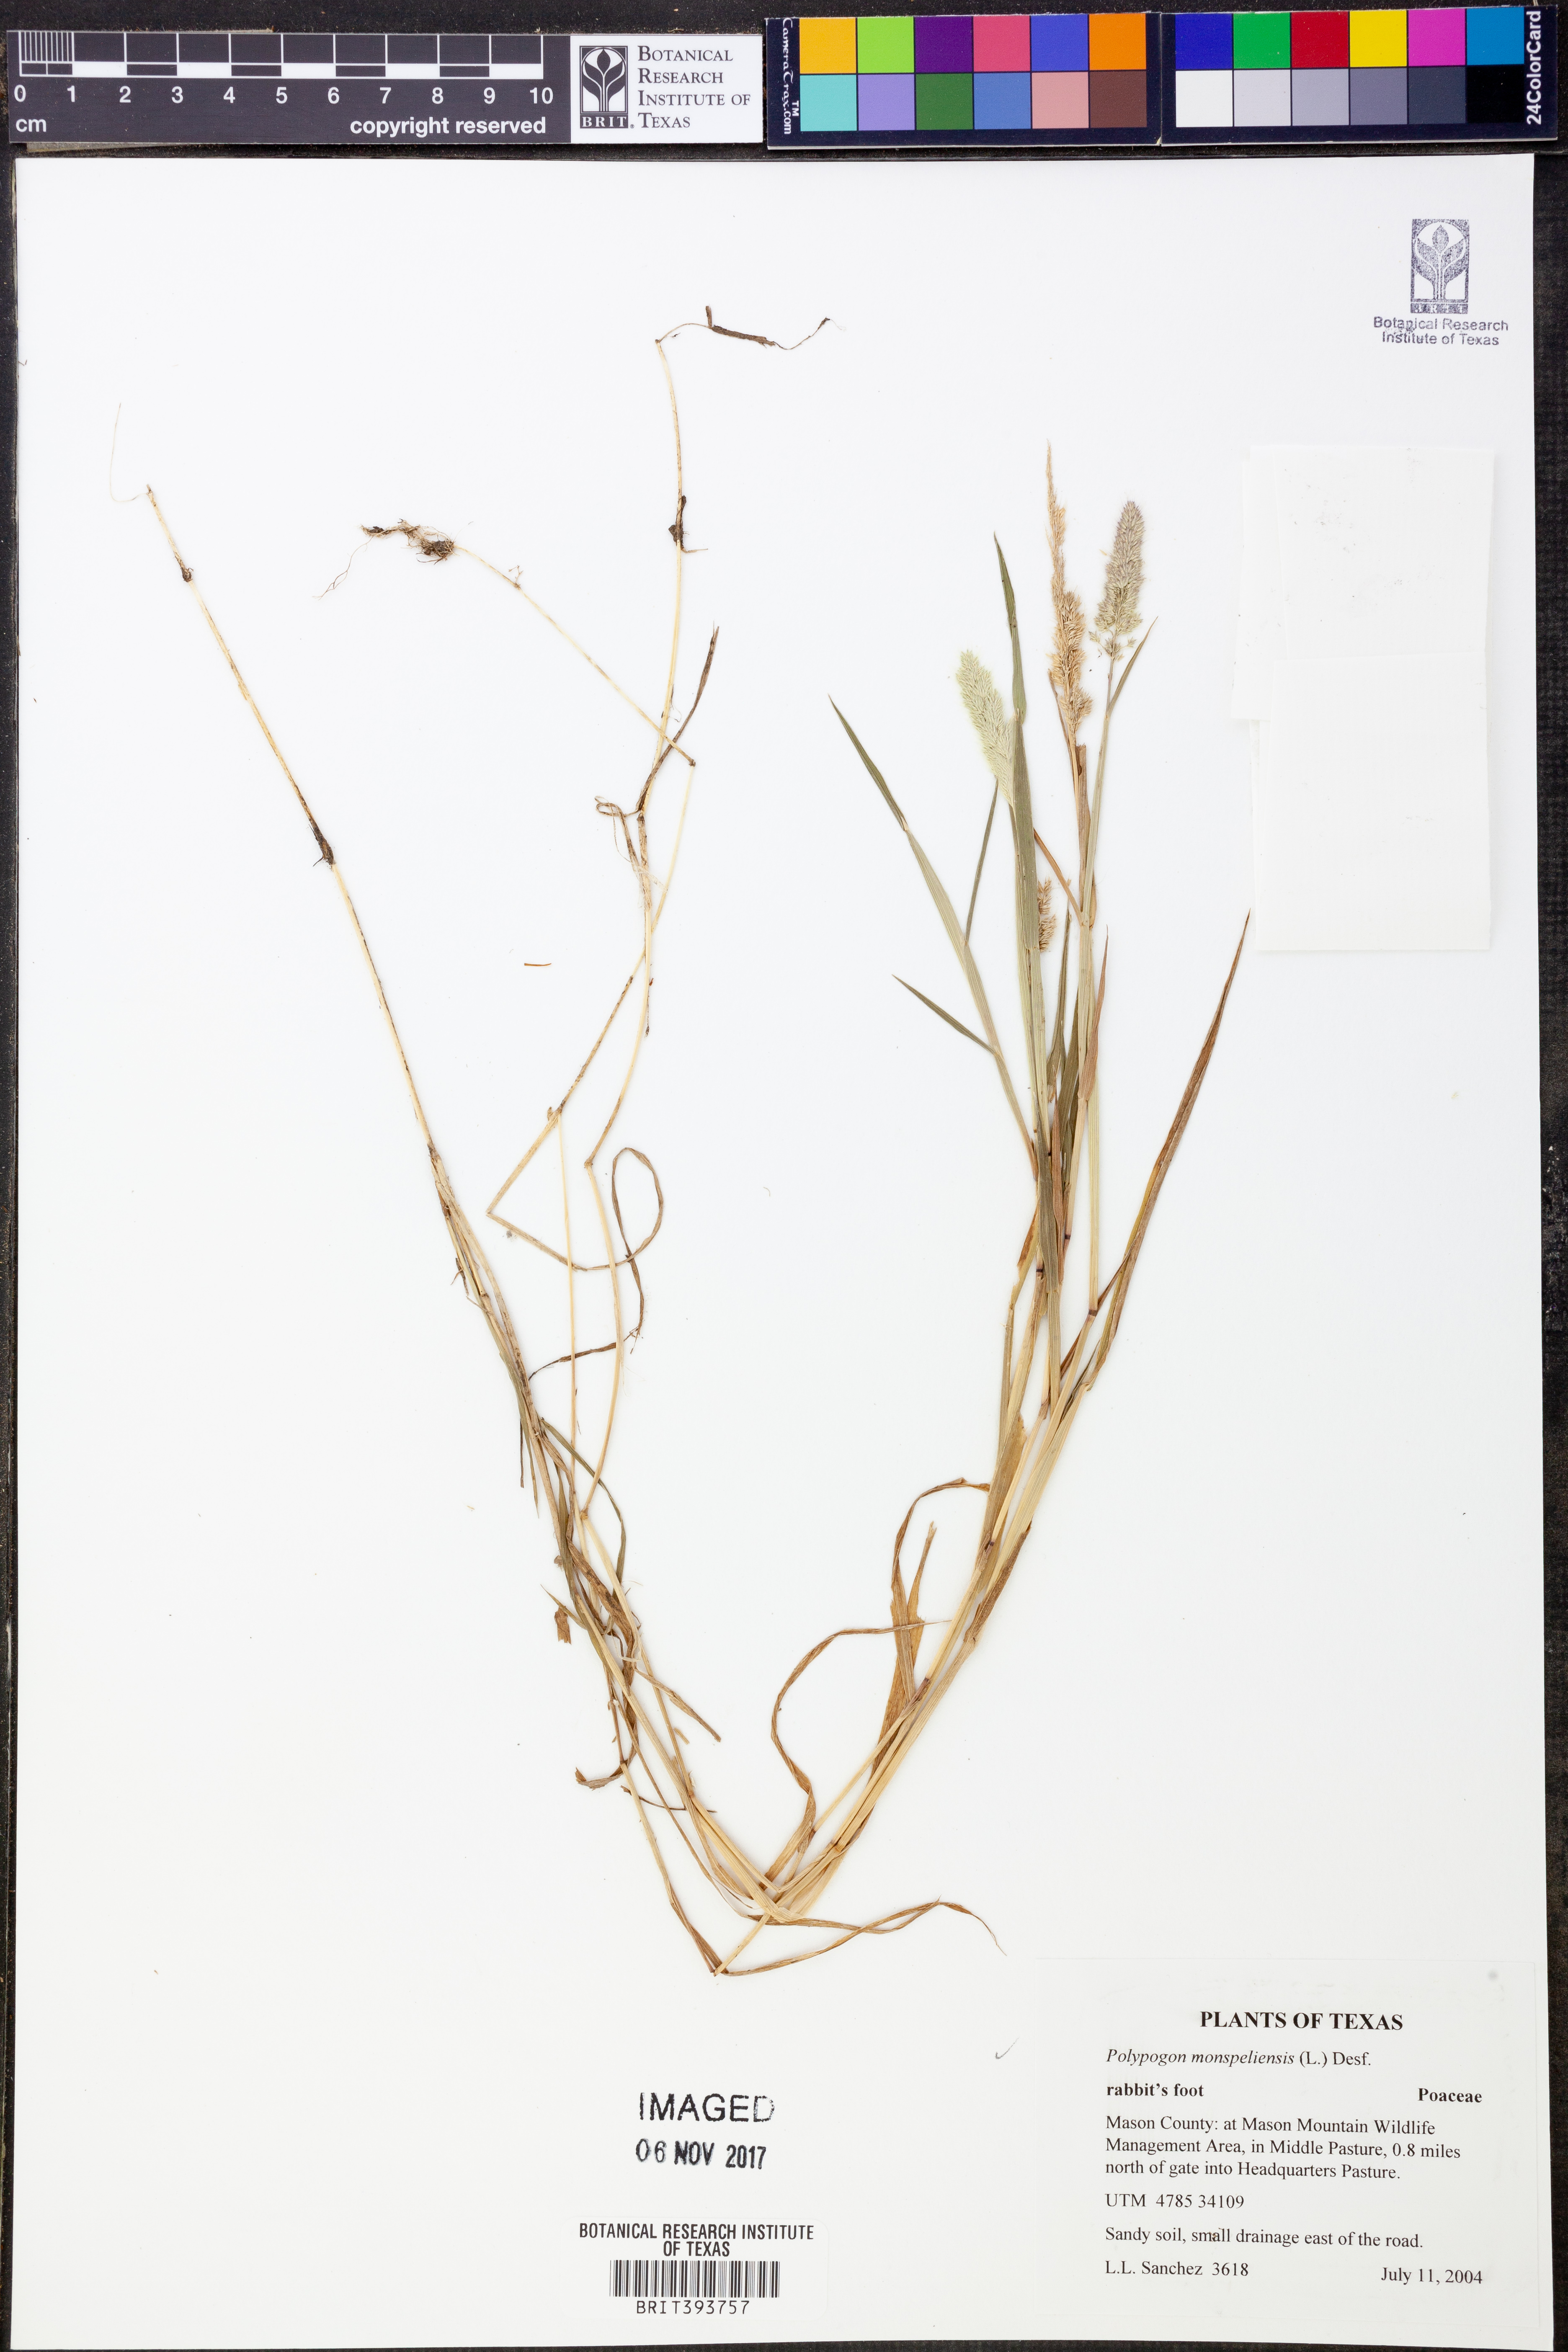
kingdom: Plantae
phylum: Tracheophyta
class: Liliopsida
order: Poales
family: Poaceae
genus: Polypogon
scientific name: Polypogon monspeliensis
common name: Annual rabbitsfoot grass
